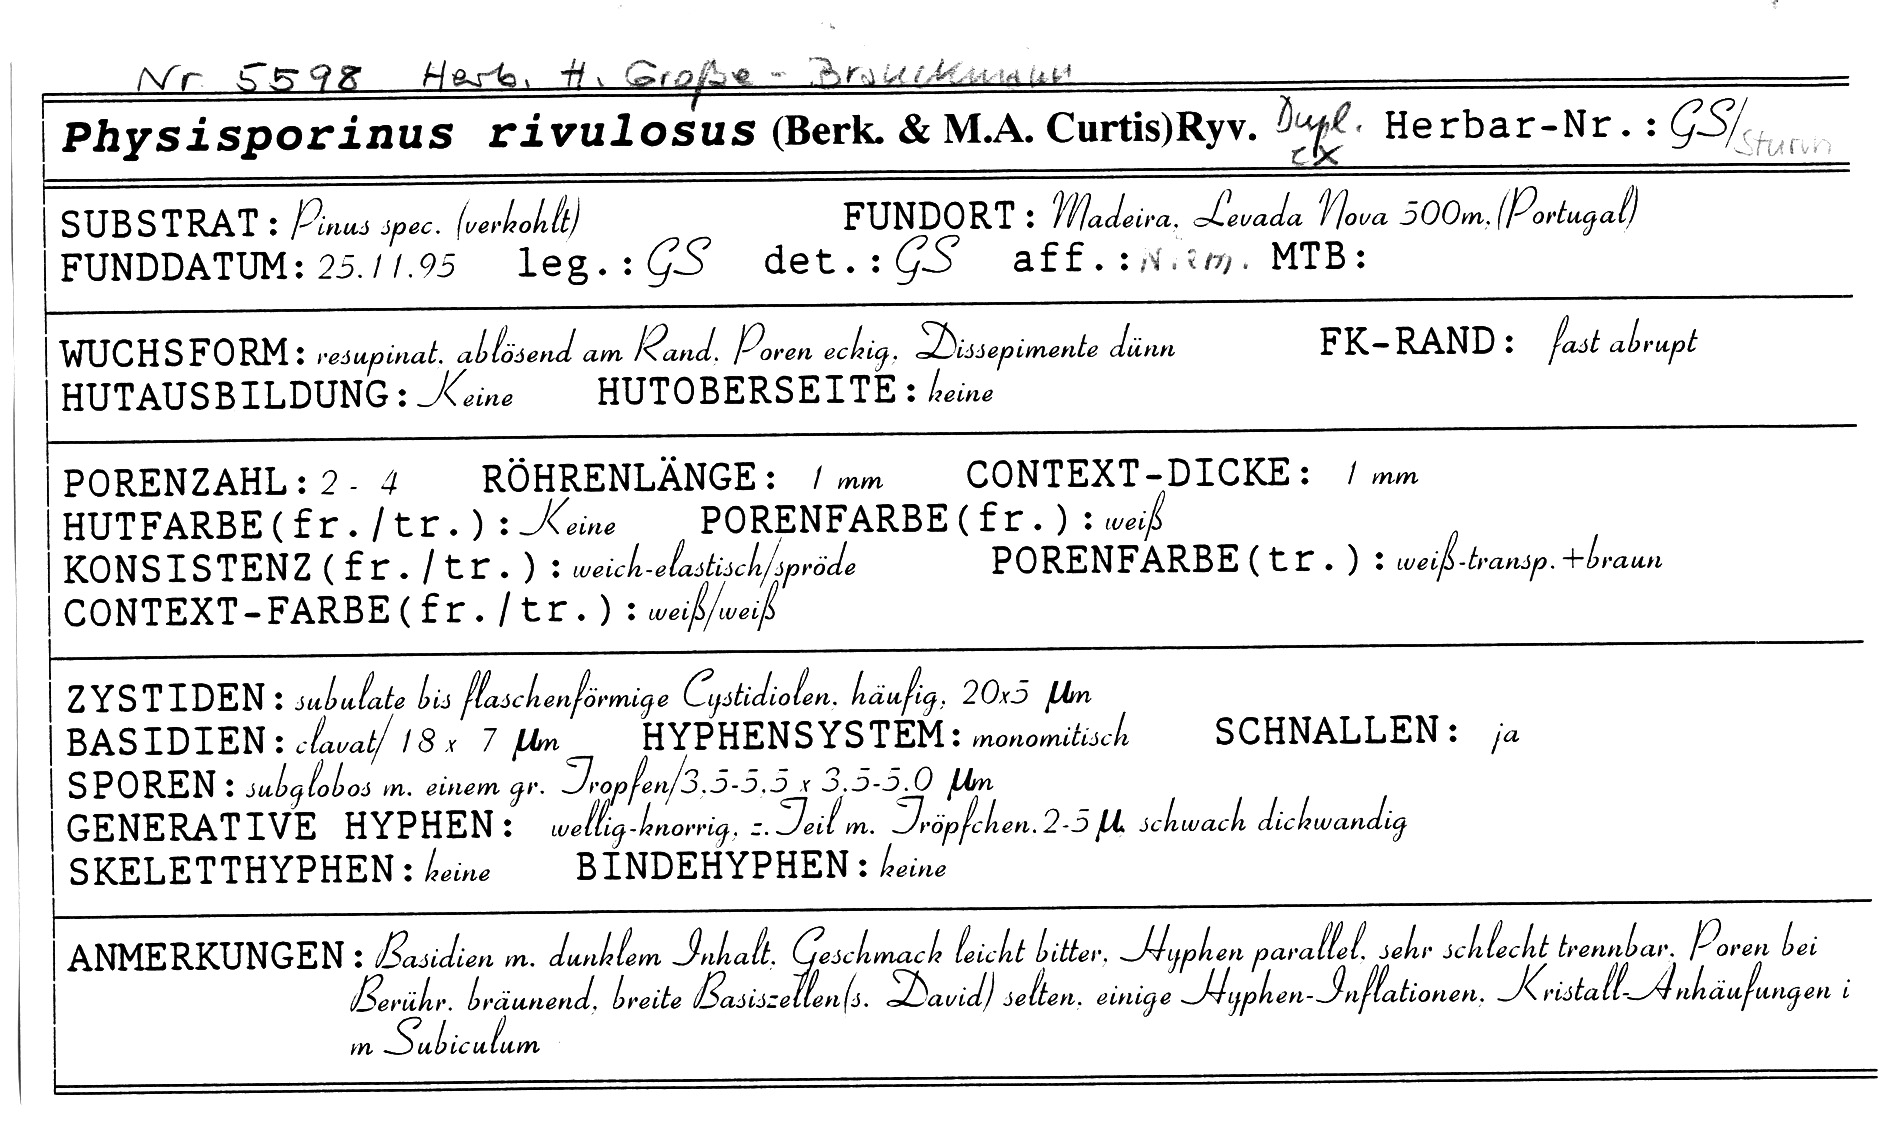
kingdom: Fungi
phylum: Basidiomycota
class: Agaricomycetes
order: Polyporales
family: Gelatoporiaceae
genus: Obba
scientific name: Obba rivulosa
